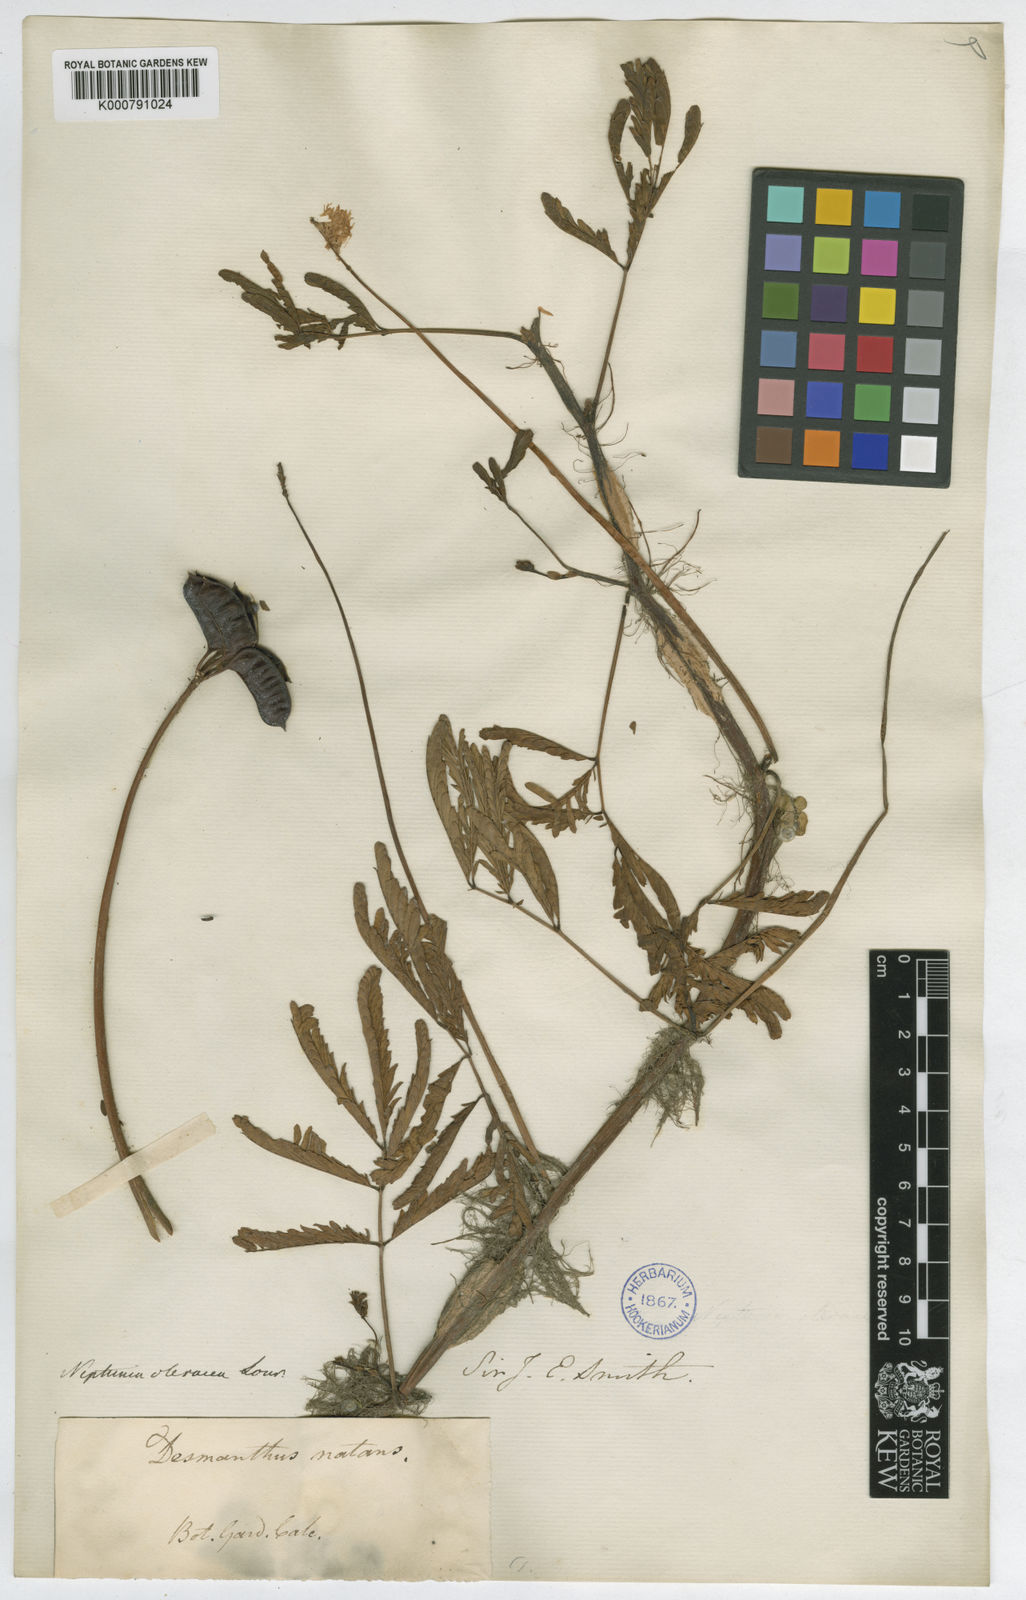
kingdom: Plantae
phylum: Tracheophyta
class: Magnoliopsida
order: Fabales
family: Fabaceae
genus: Neptunia
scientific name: Neptunia prostrata
